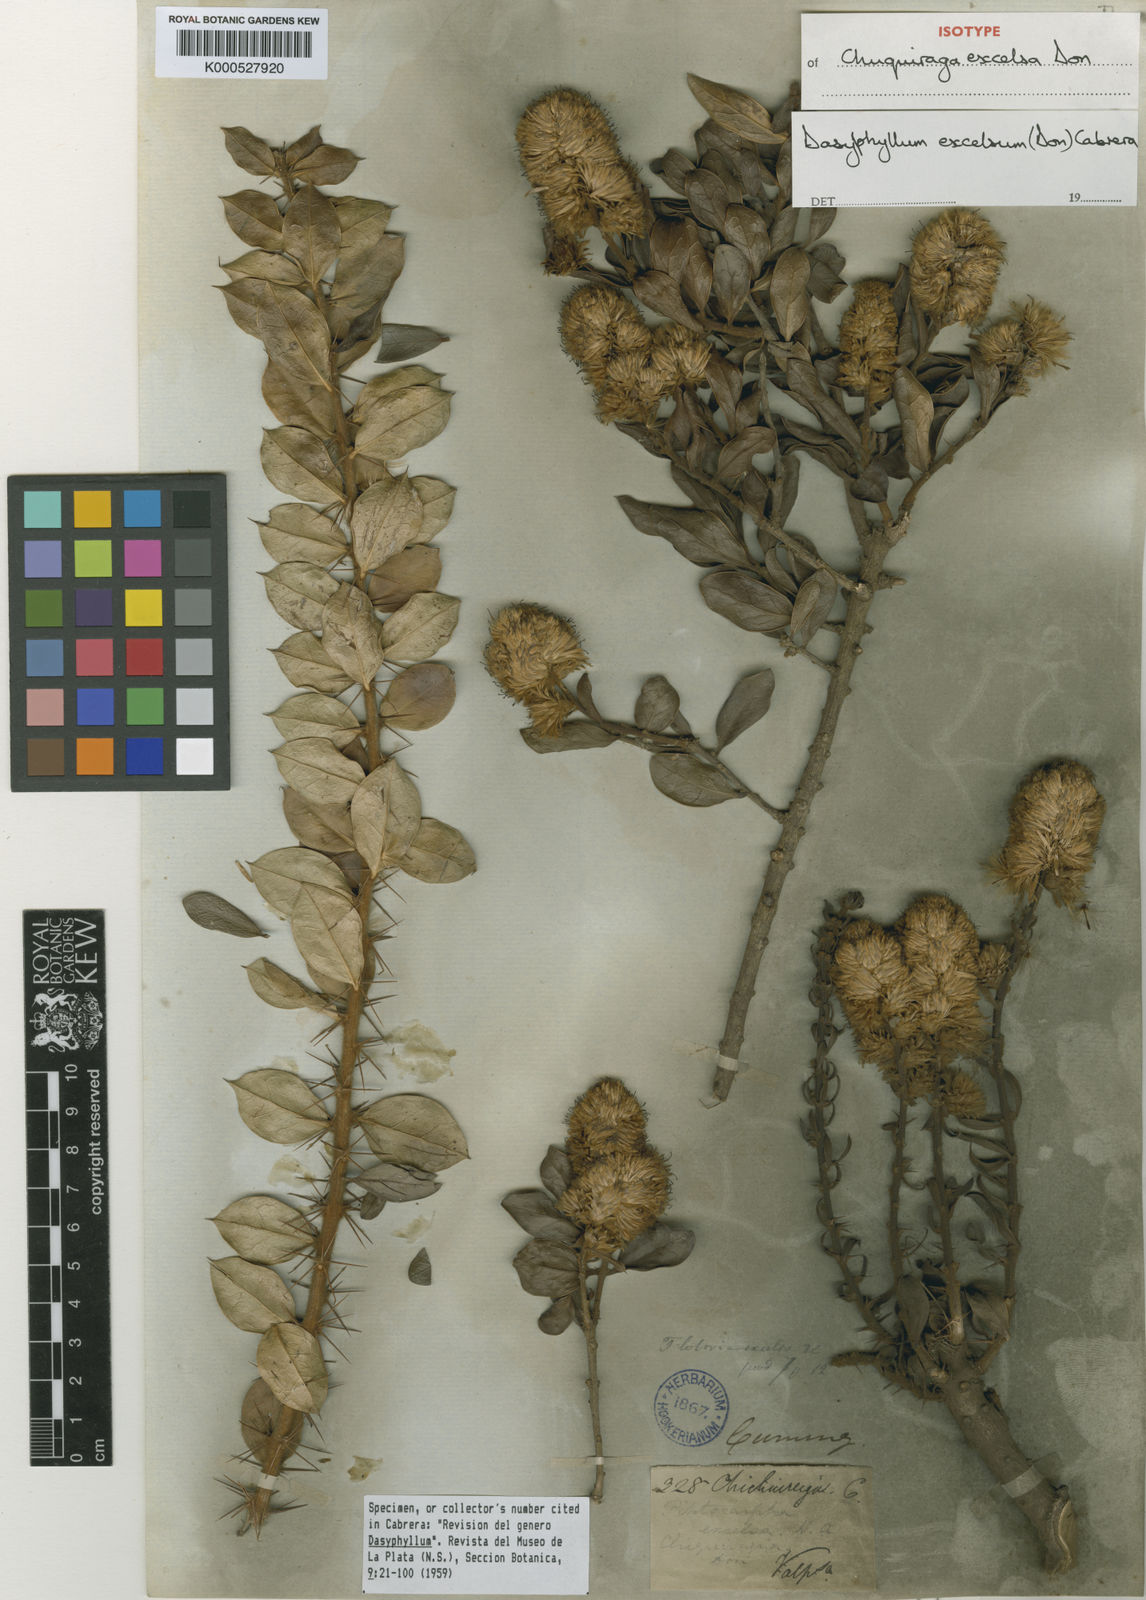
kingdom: Plantae
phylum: Tracheophyta
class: Magnoliopsida
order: Asterales
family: Asteraceae
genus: Archidasyphyllum
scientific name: Archidasyphyllum excelsum
